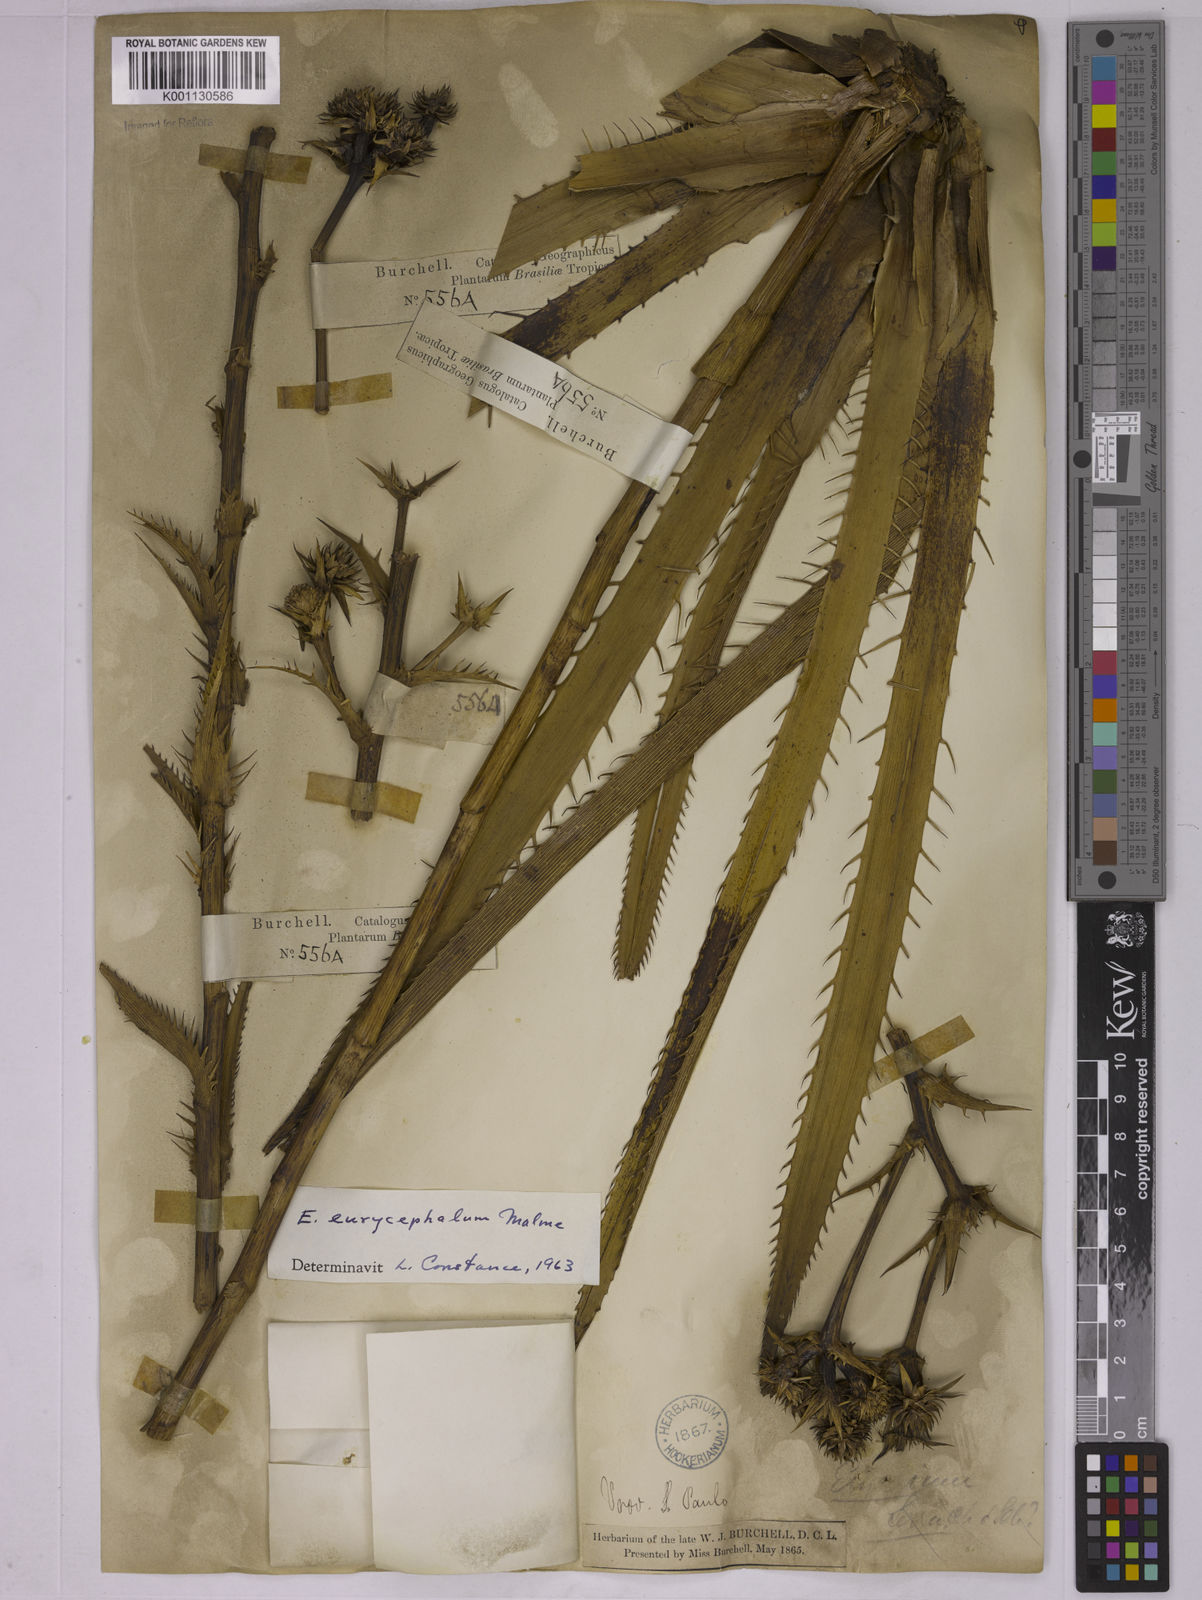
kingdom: Plantae
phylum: Tracheophyta
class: Magnoliopsida
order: Apiales
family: Apiaceae
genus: Eryngium
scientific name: Eryngium eurycephalum
